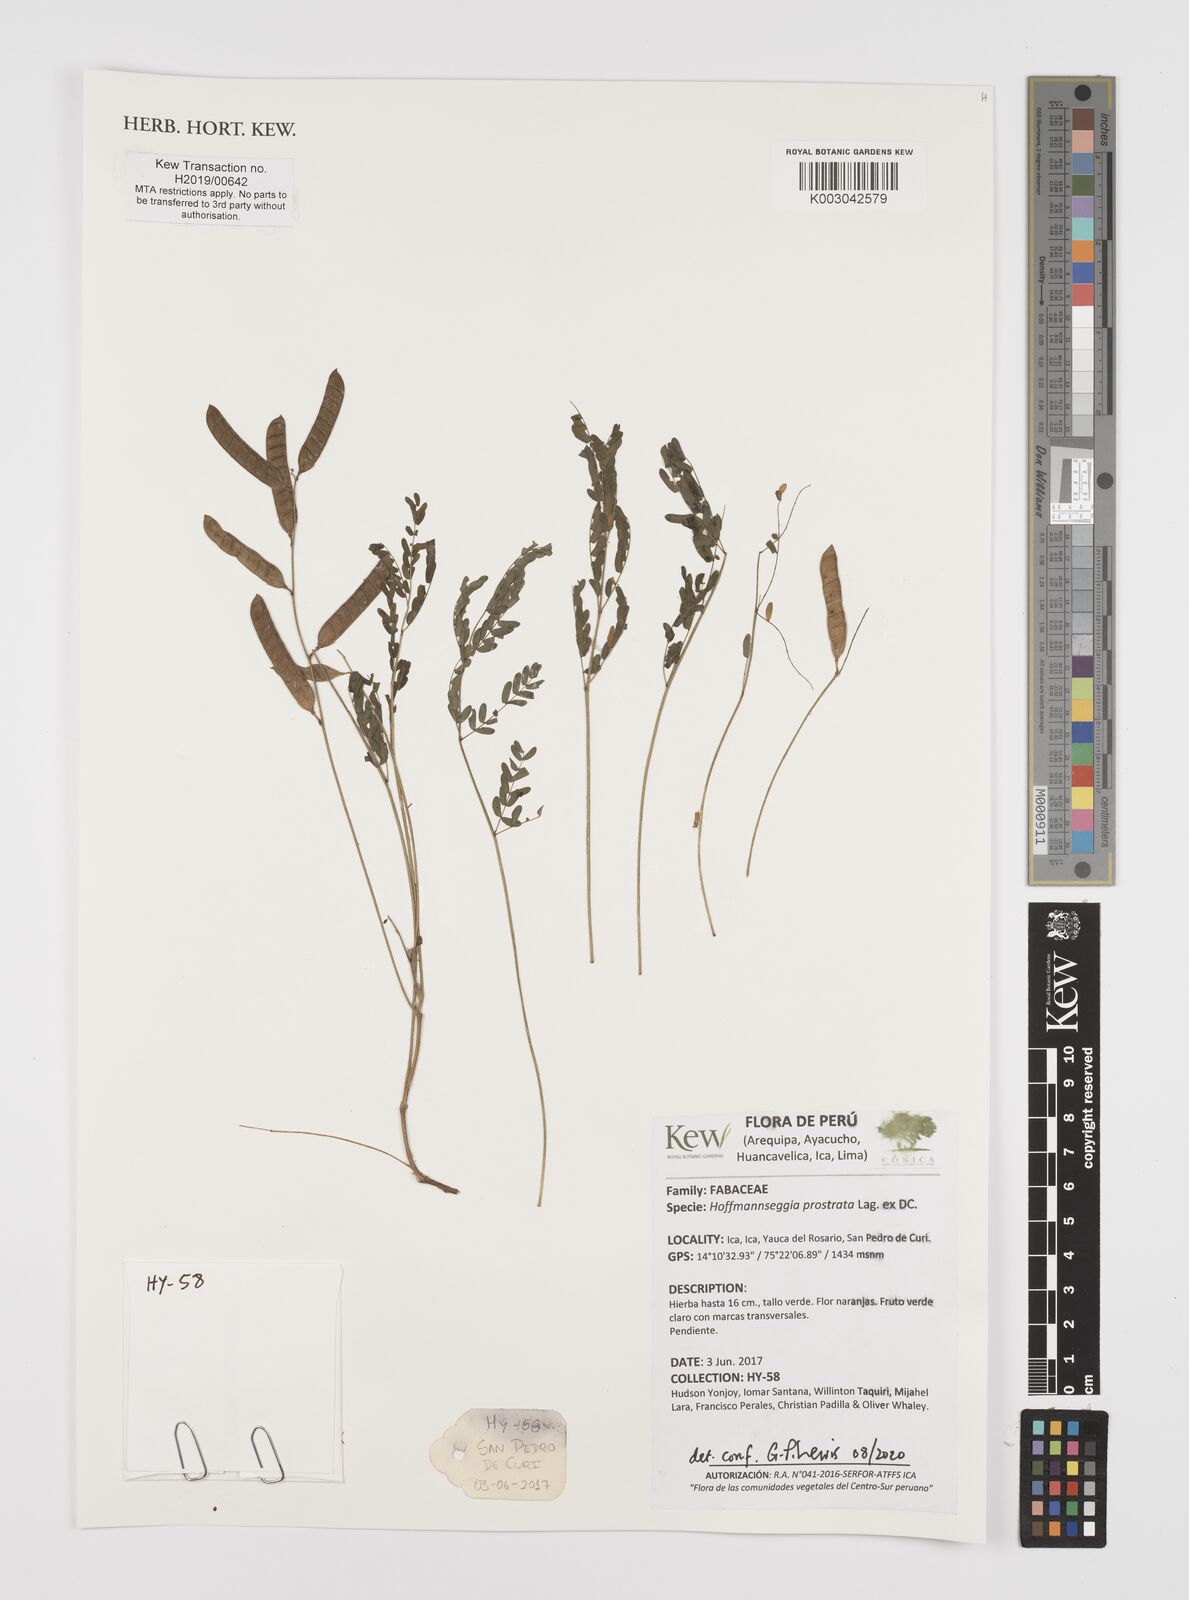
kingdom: Plantae
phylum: Tracheophyta
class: Magnoliopsida
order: Fabales
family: Fabaceae
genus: Hoffmannseggia
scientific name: Hoffmannseggia prostrata
